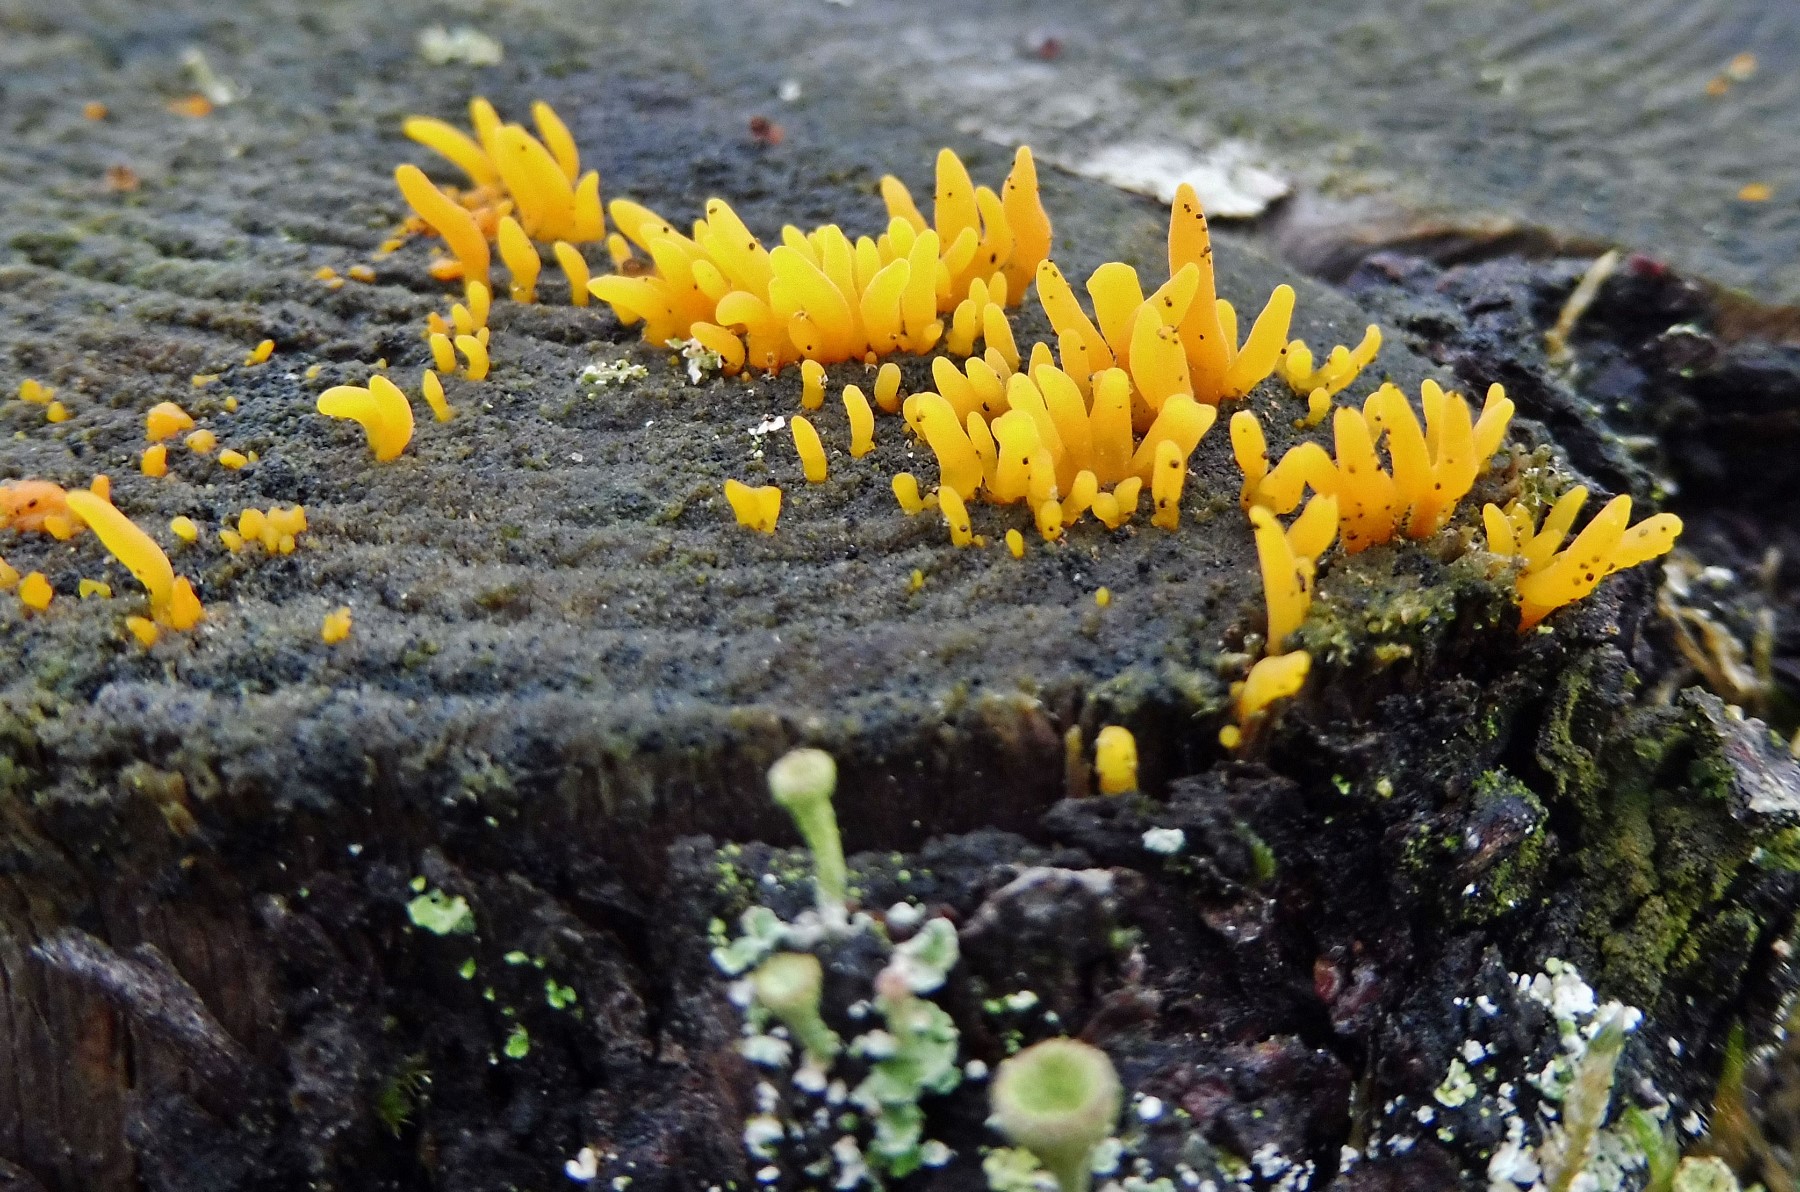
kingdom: Fungi
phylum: Basidiomycota
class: Dacrymycetes
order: Dacrymycetales
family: Dacrymycetaceae
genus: Calocera
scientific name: Calocera furcata
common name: fyrre-guldgaffel
